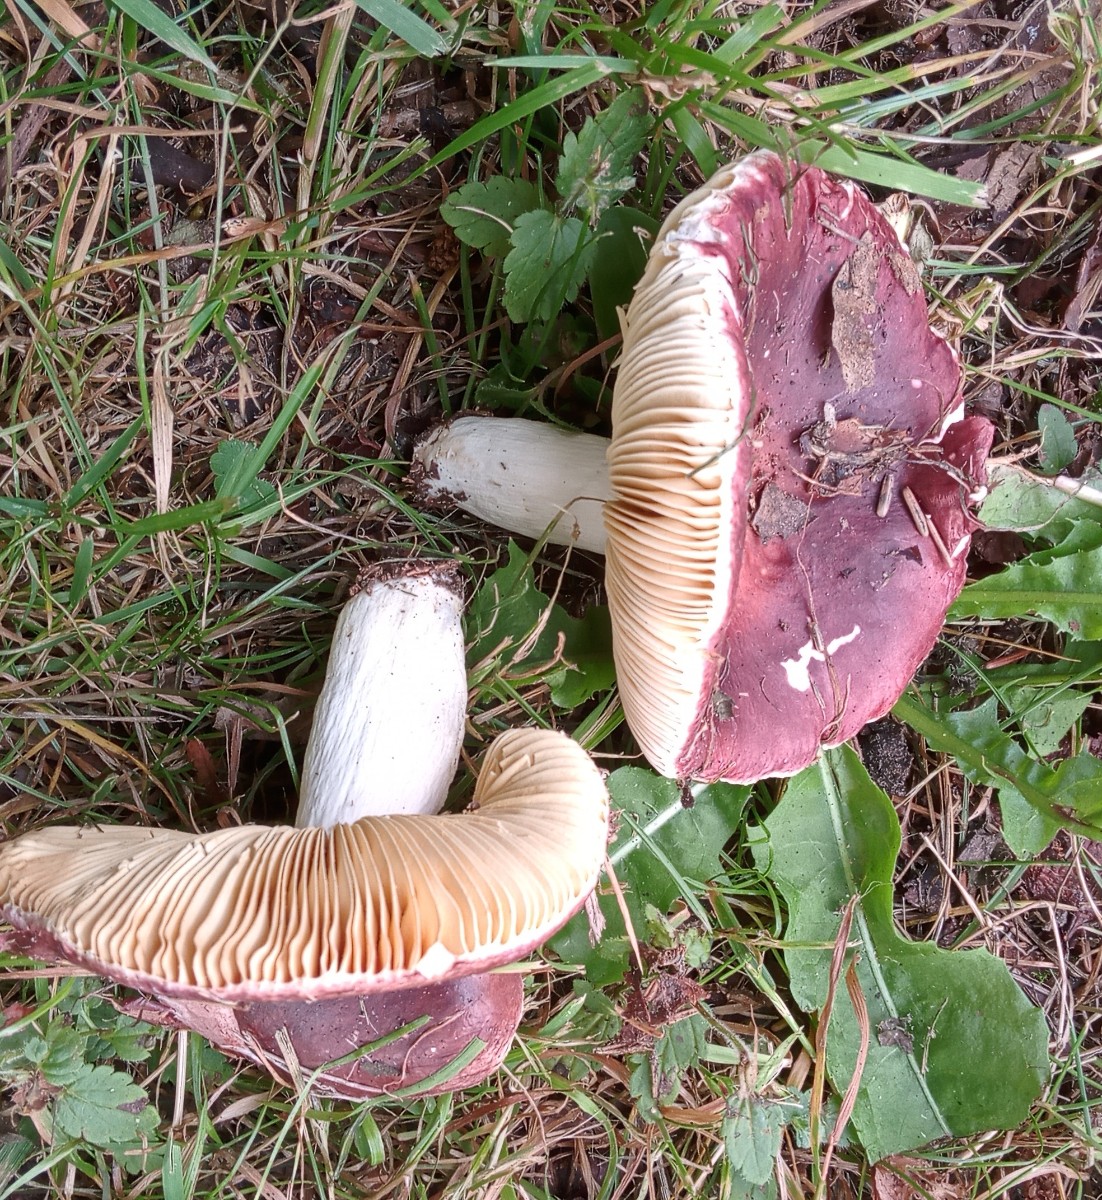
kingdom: Fungi
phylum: Basidiomycota
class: Agaricomycetes
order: Russulales
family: Russulaceae
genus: Russula
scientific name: Russula integra
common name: mandel-skørhat
